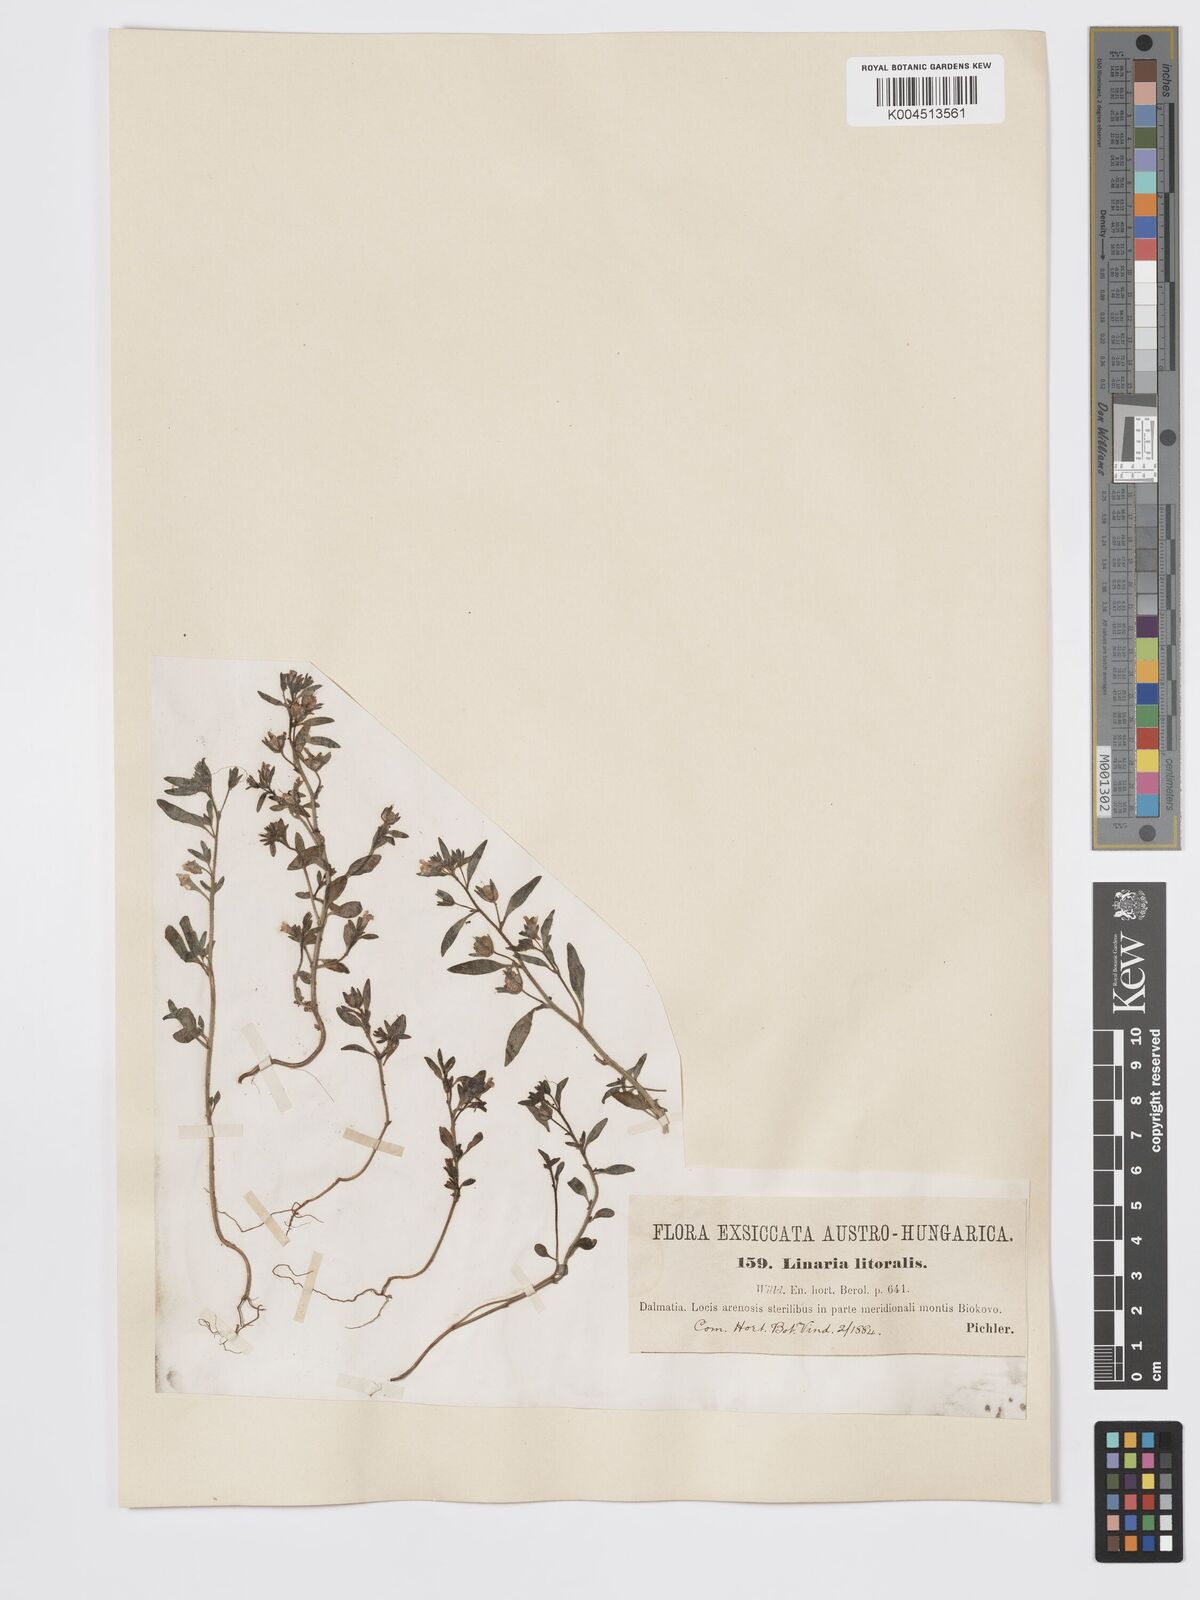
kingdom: Plantae
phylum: Tracheophyta
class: Magnoliopsida
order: Lamiales
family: Plantaginaceae
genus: Chaenorhinum
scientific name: Chaenorhinum minus
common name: Dwarf snapdragon
